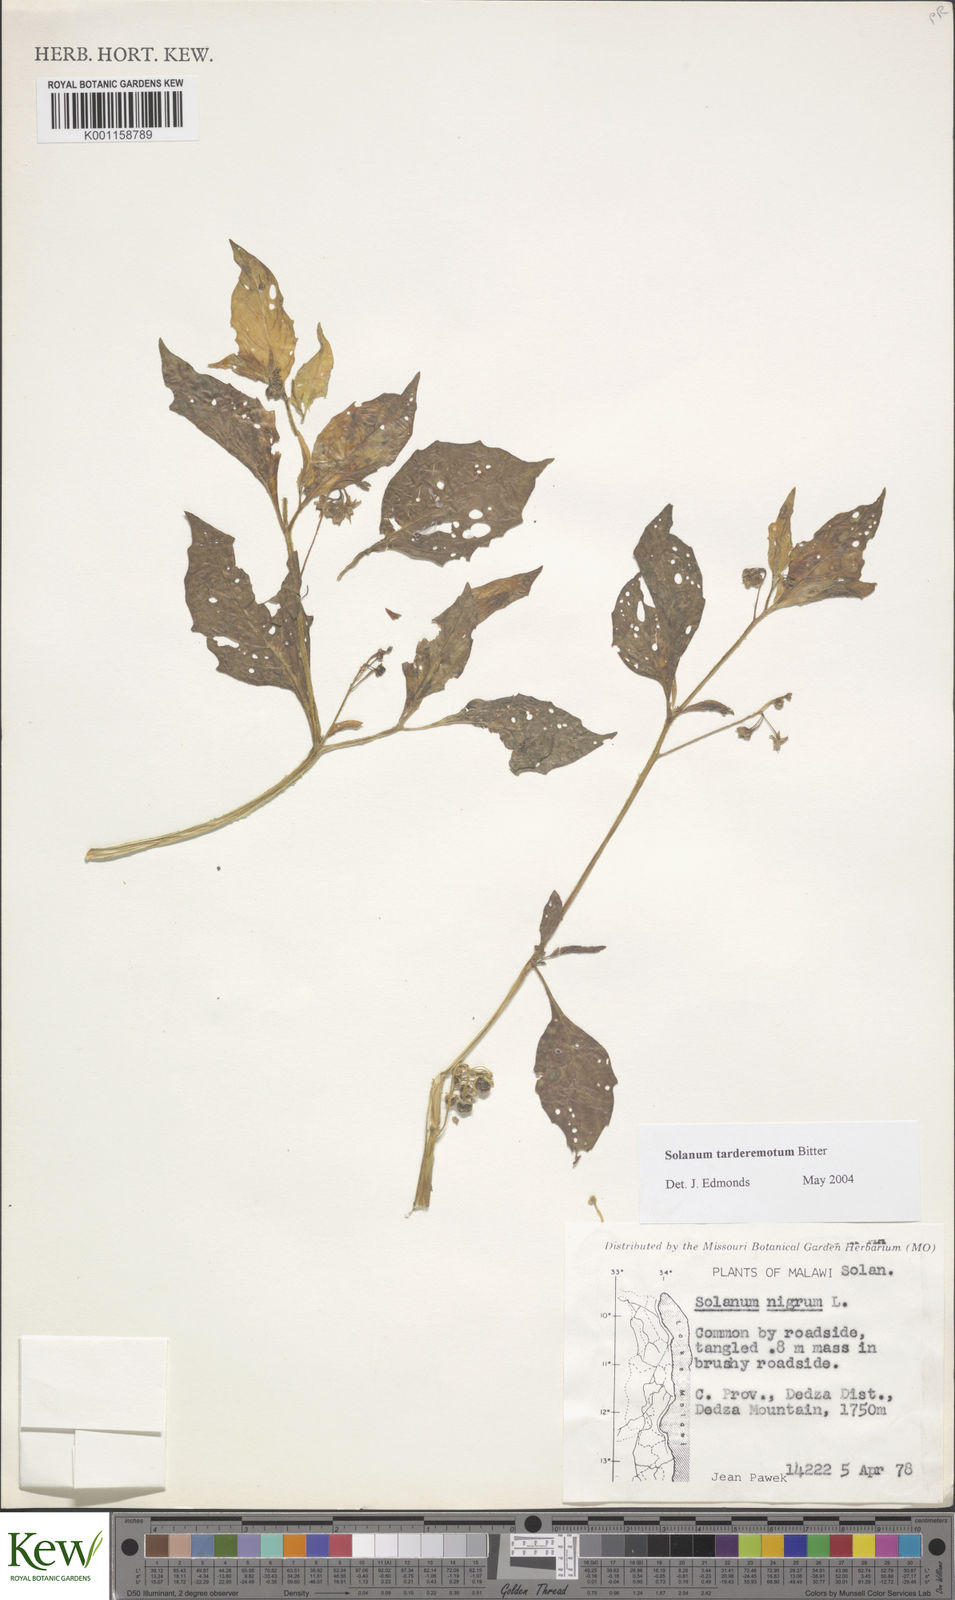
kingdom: Plantae
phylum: Tracheophyta
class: Magnoliopsida
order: Solanales
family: Solanaceae
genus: Solanum
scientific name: Solanum tarderemotum
